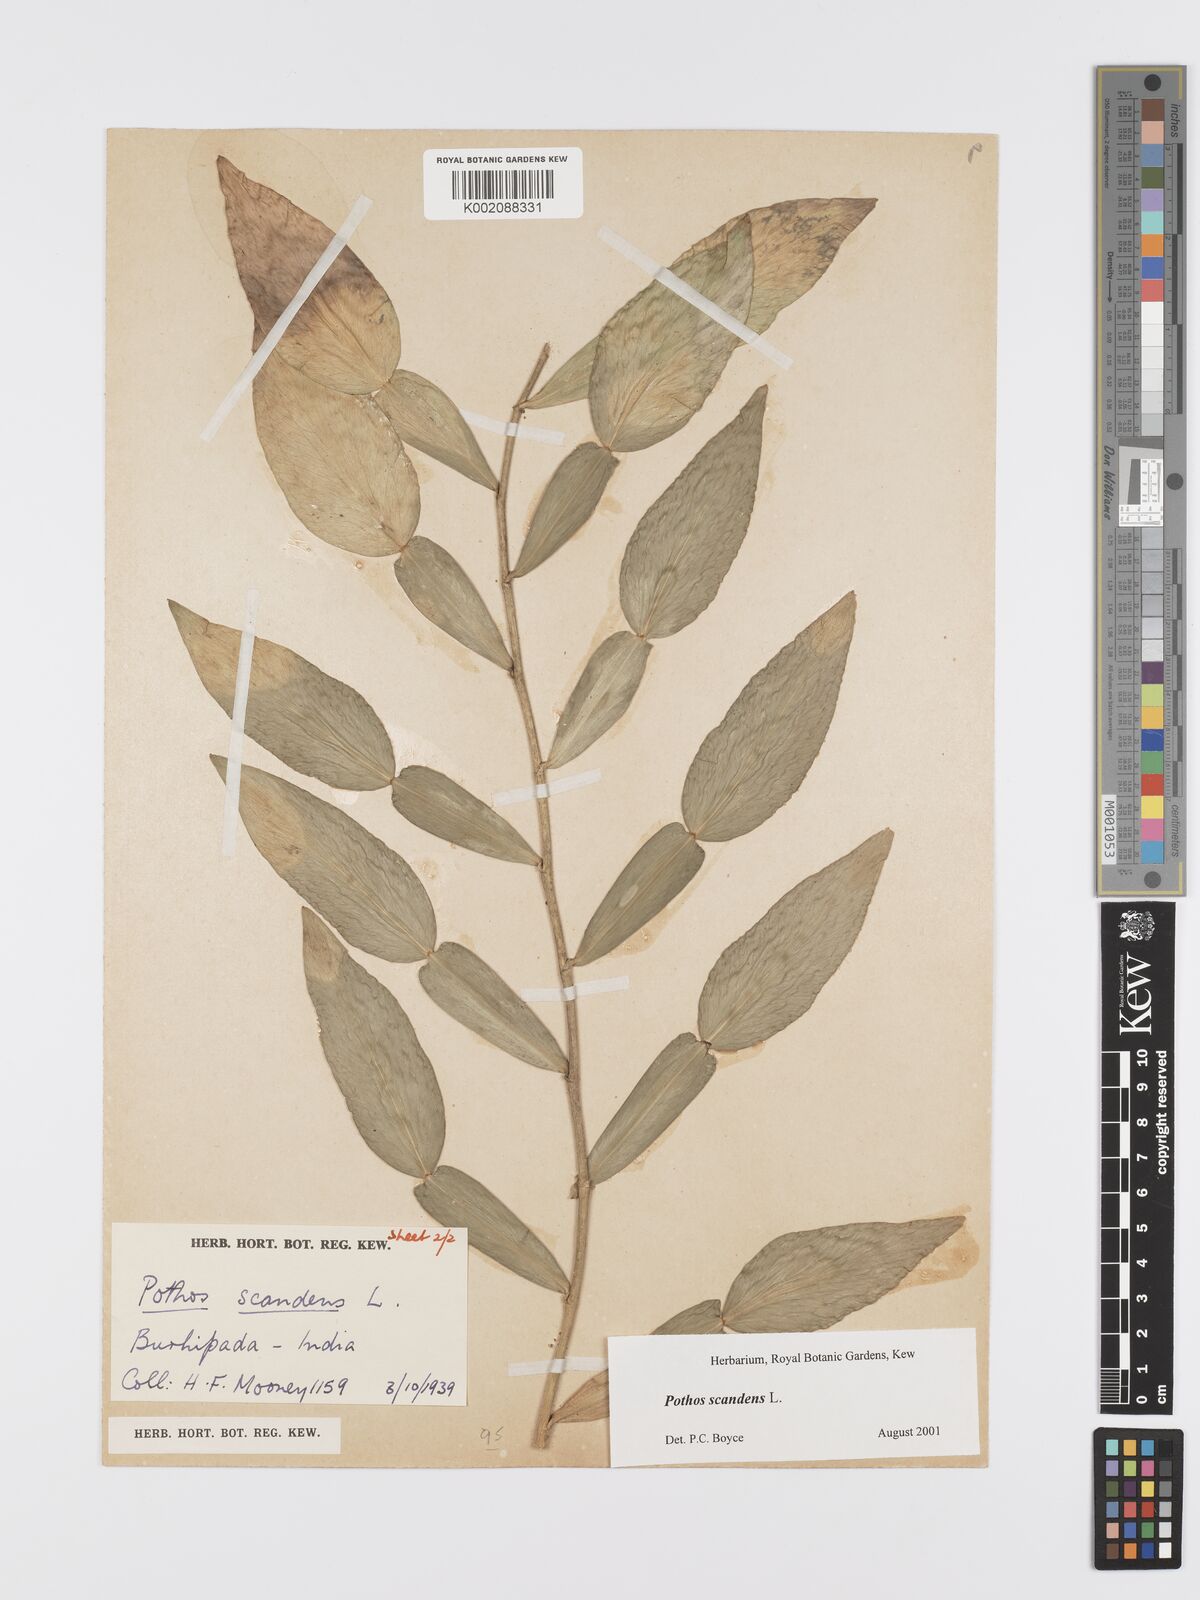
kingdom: Plantae
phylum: Tracheophyta
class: Liliopsida
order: Alismatales
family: Araceae
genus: Pothos
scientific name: Pothos scandens
